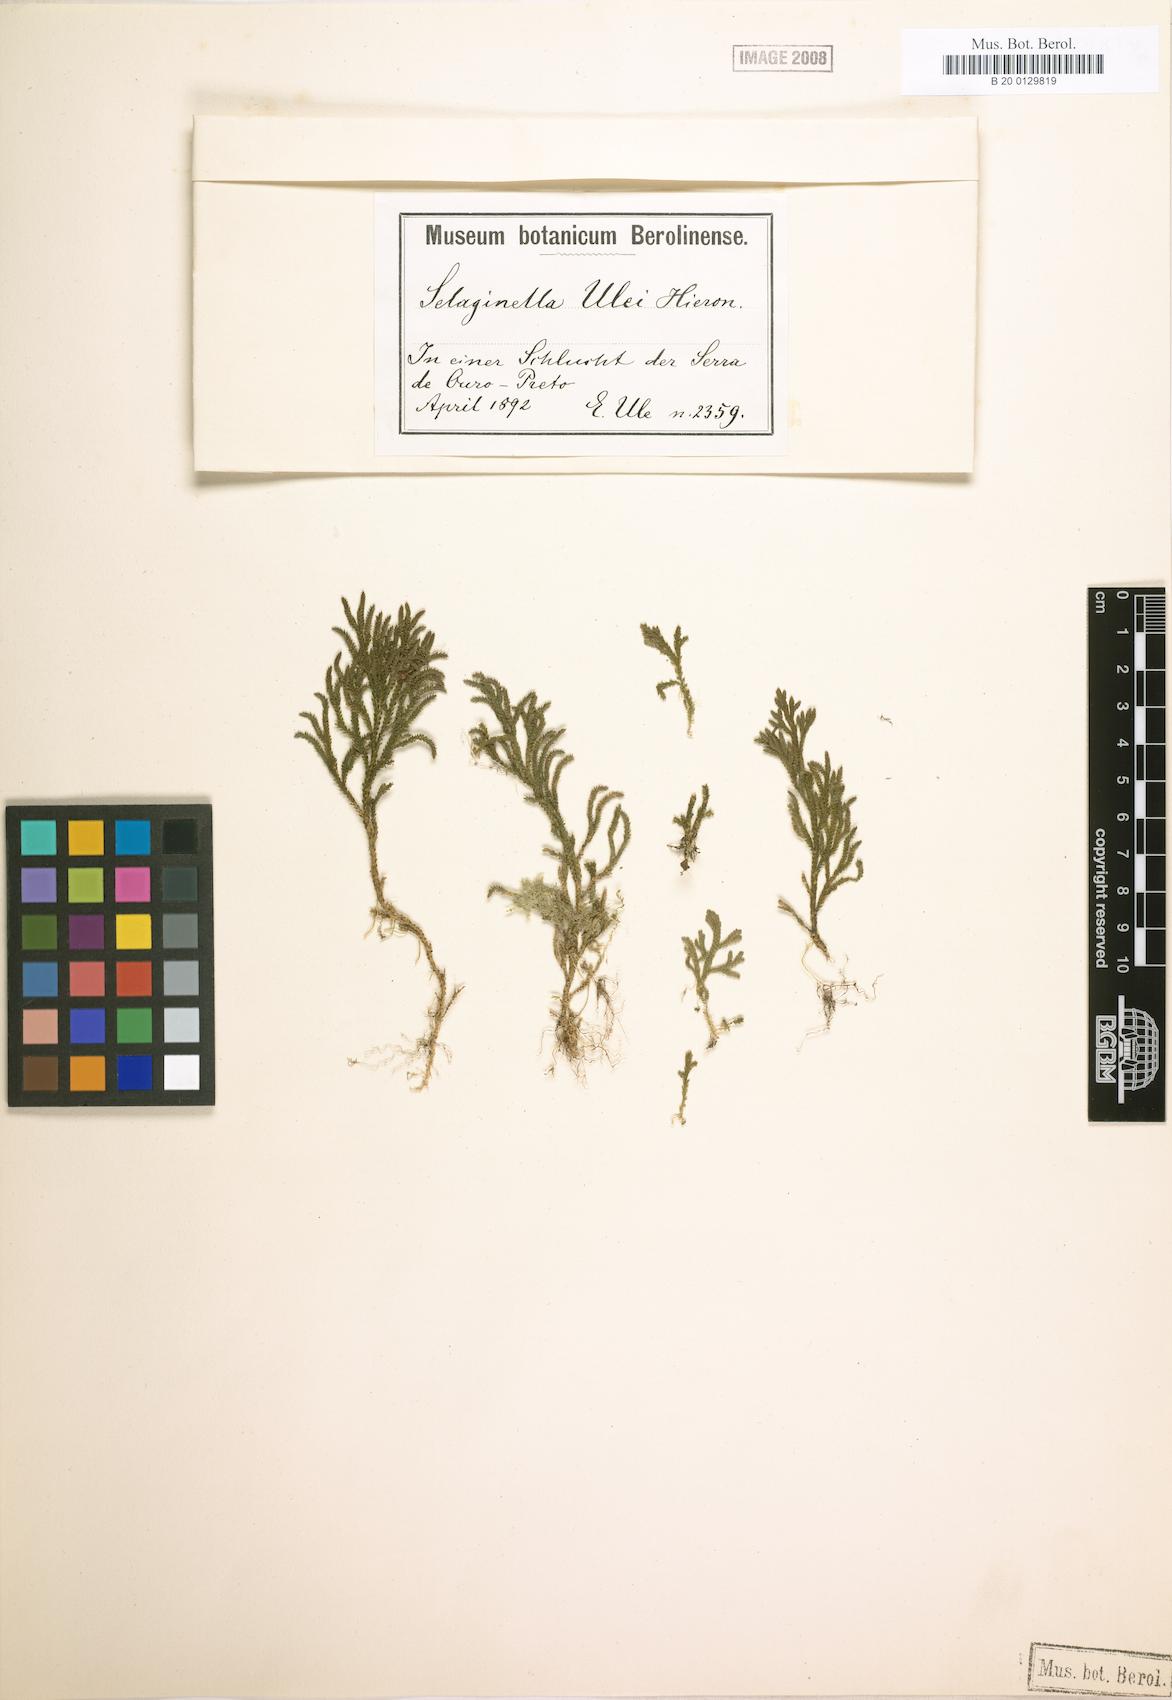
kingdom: Plantae
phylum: Tracheophyta
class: Lycopodiopsida
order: Selaginellales
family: Selaginellaceae
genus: Selaginella
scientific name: Selaginella erectifolia
